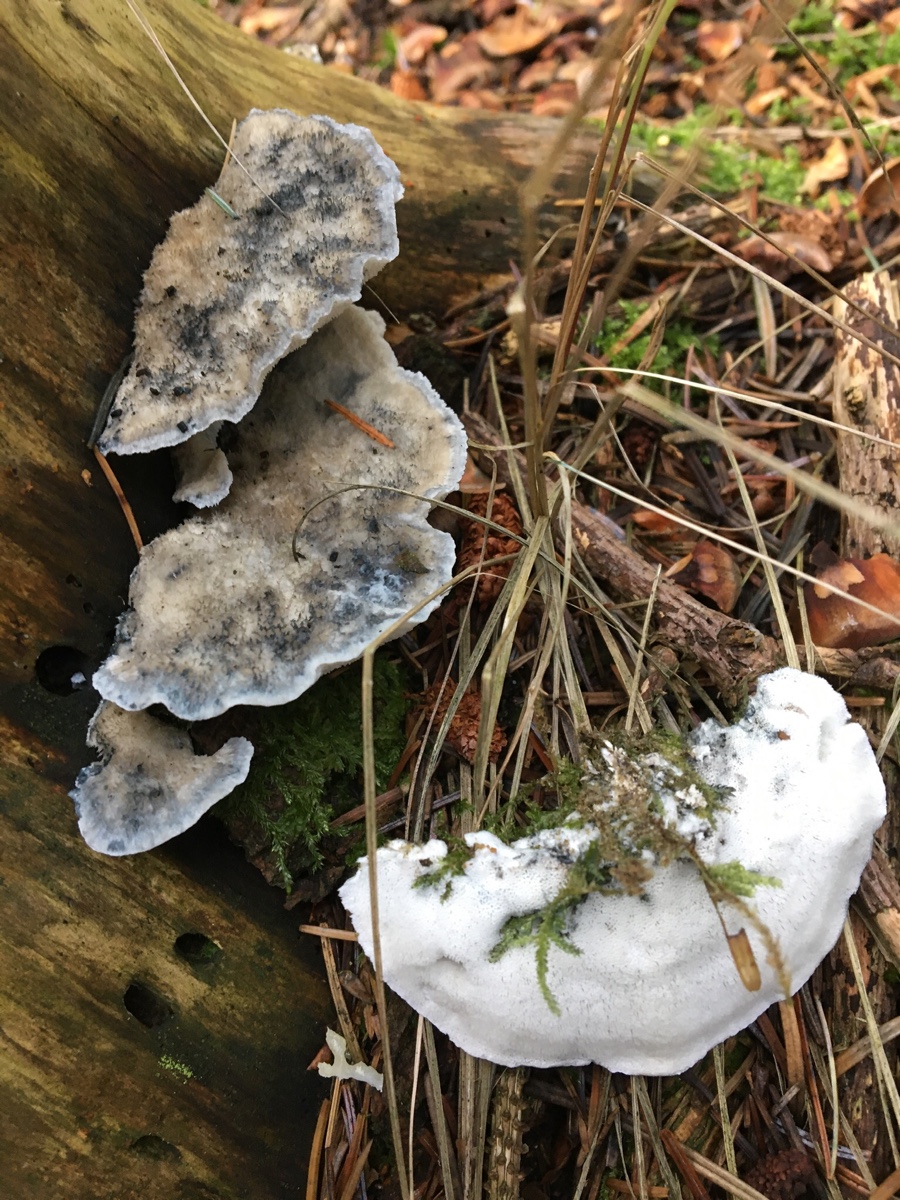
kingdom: Fungi
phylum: Basidiomycota
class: Agaricomycetes
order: Polyporales
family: Polyporaceae
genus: Cyanosporus
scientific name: Cyanosporus caesius
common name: blålig kødporesvamp
